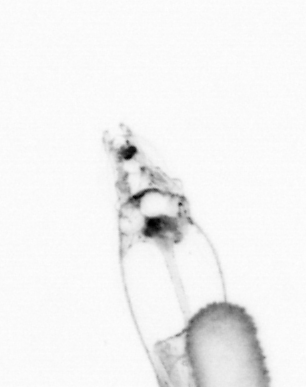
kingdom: Animalia
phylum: Arthropoda
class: Copepoda
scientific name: Copepoda
